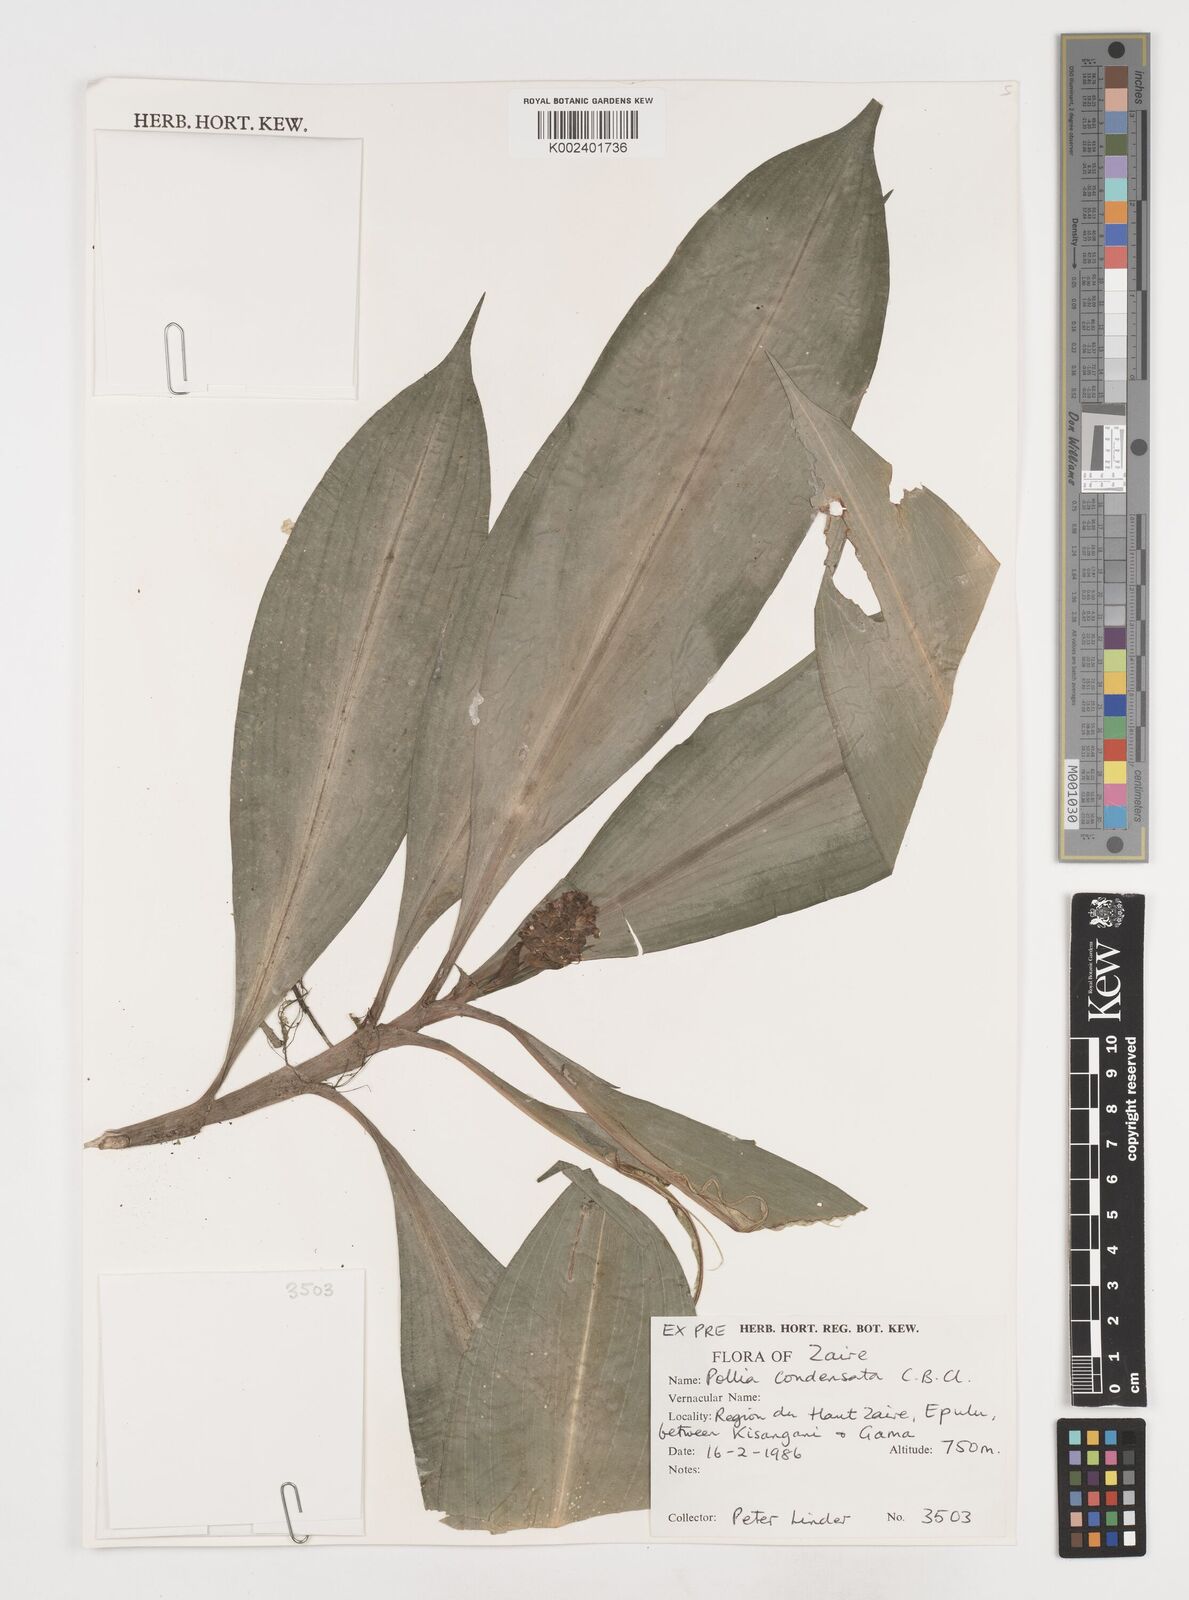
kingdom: Plantae
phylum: Tracheophyta
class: Liliopsida
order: Commelinales
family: Commelinaceae
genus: Pollia
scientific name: Pollia condensata
